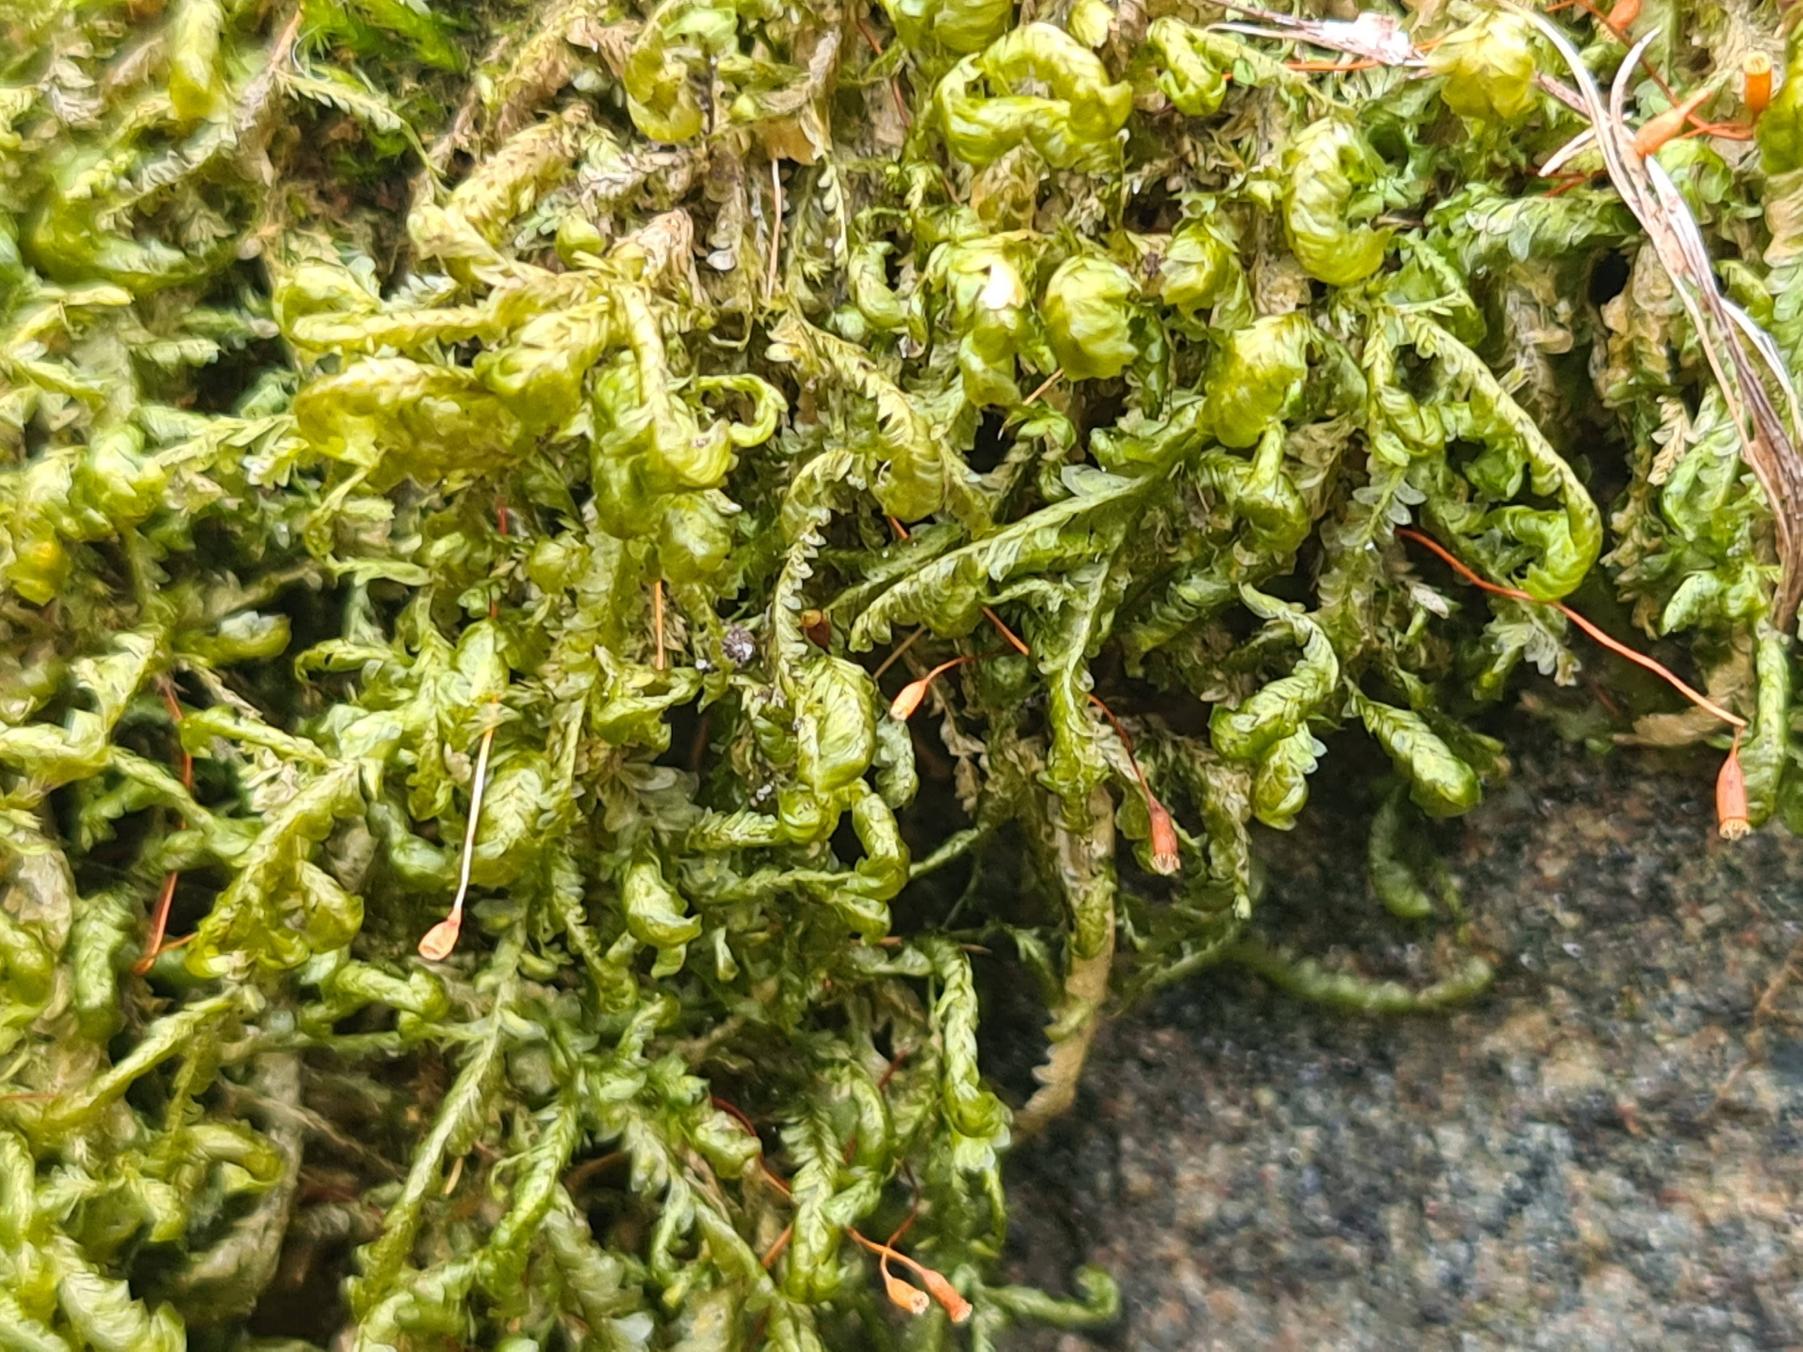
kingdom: Plantae
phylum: Bryophyta
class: Bryopsida
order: Hypnales
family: Neckeraceae
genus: Homalia
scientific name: Homalia trichomanoides
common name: Skov-tungemos
